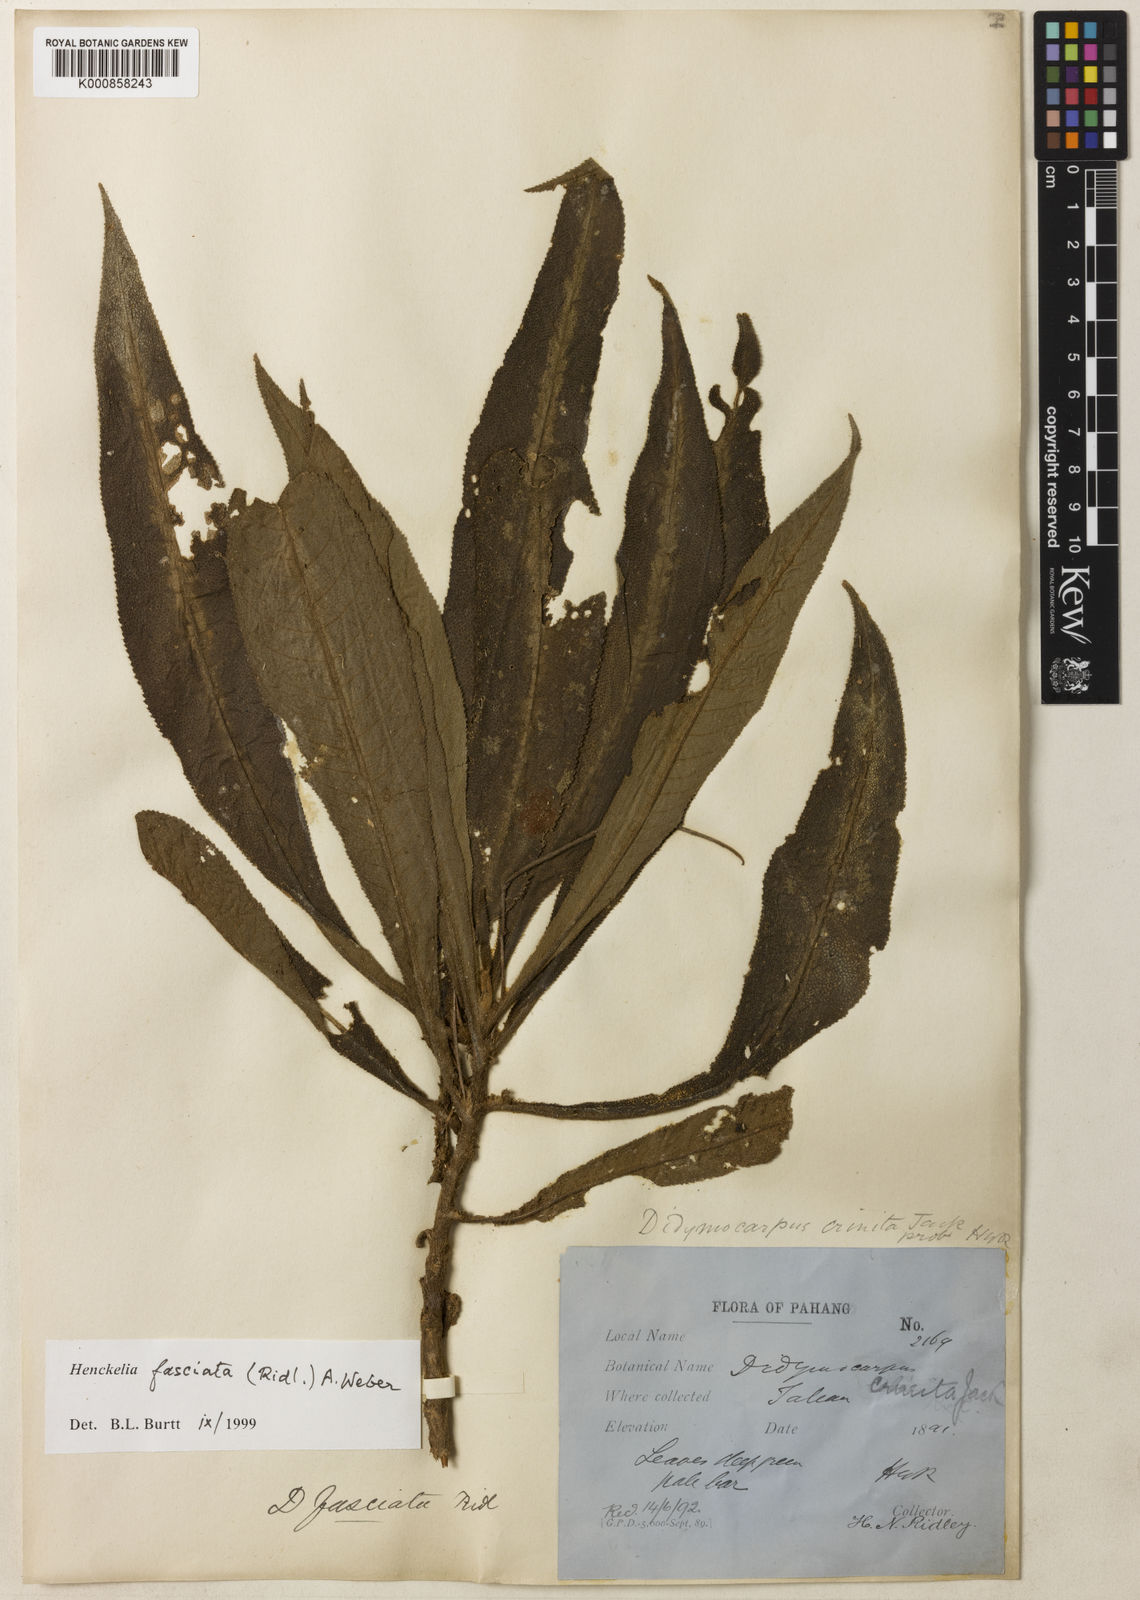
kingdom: Plantae
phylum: Tracheophyta
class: Magnoliopsida
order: Lamiales
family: Gesneriaceae
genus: Codonoboea
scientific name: Codonoboea fasciata
